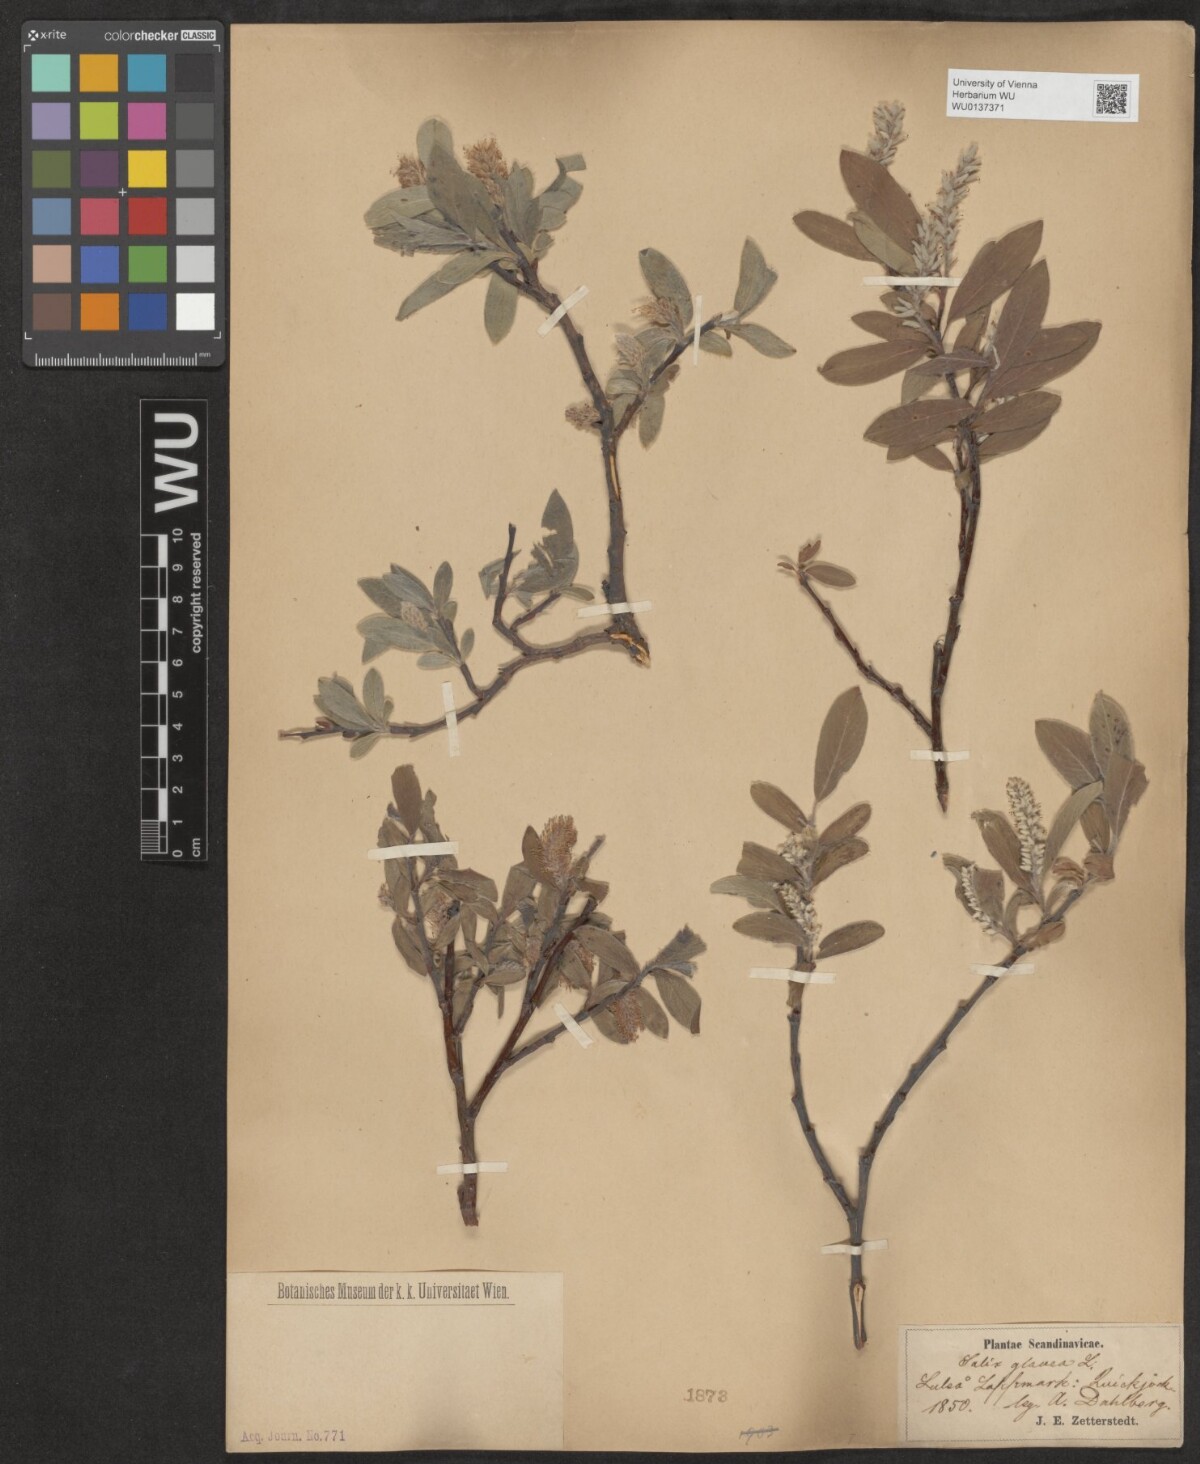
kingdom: Plantae
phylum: Tracheophyta
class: Magnoliopsida
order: Malpighiales
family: Salicaceae
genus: Salix
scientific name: Salix glauca
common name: Glaucous willow
